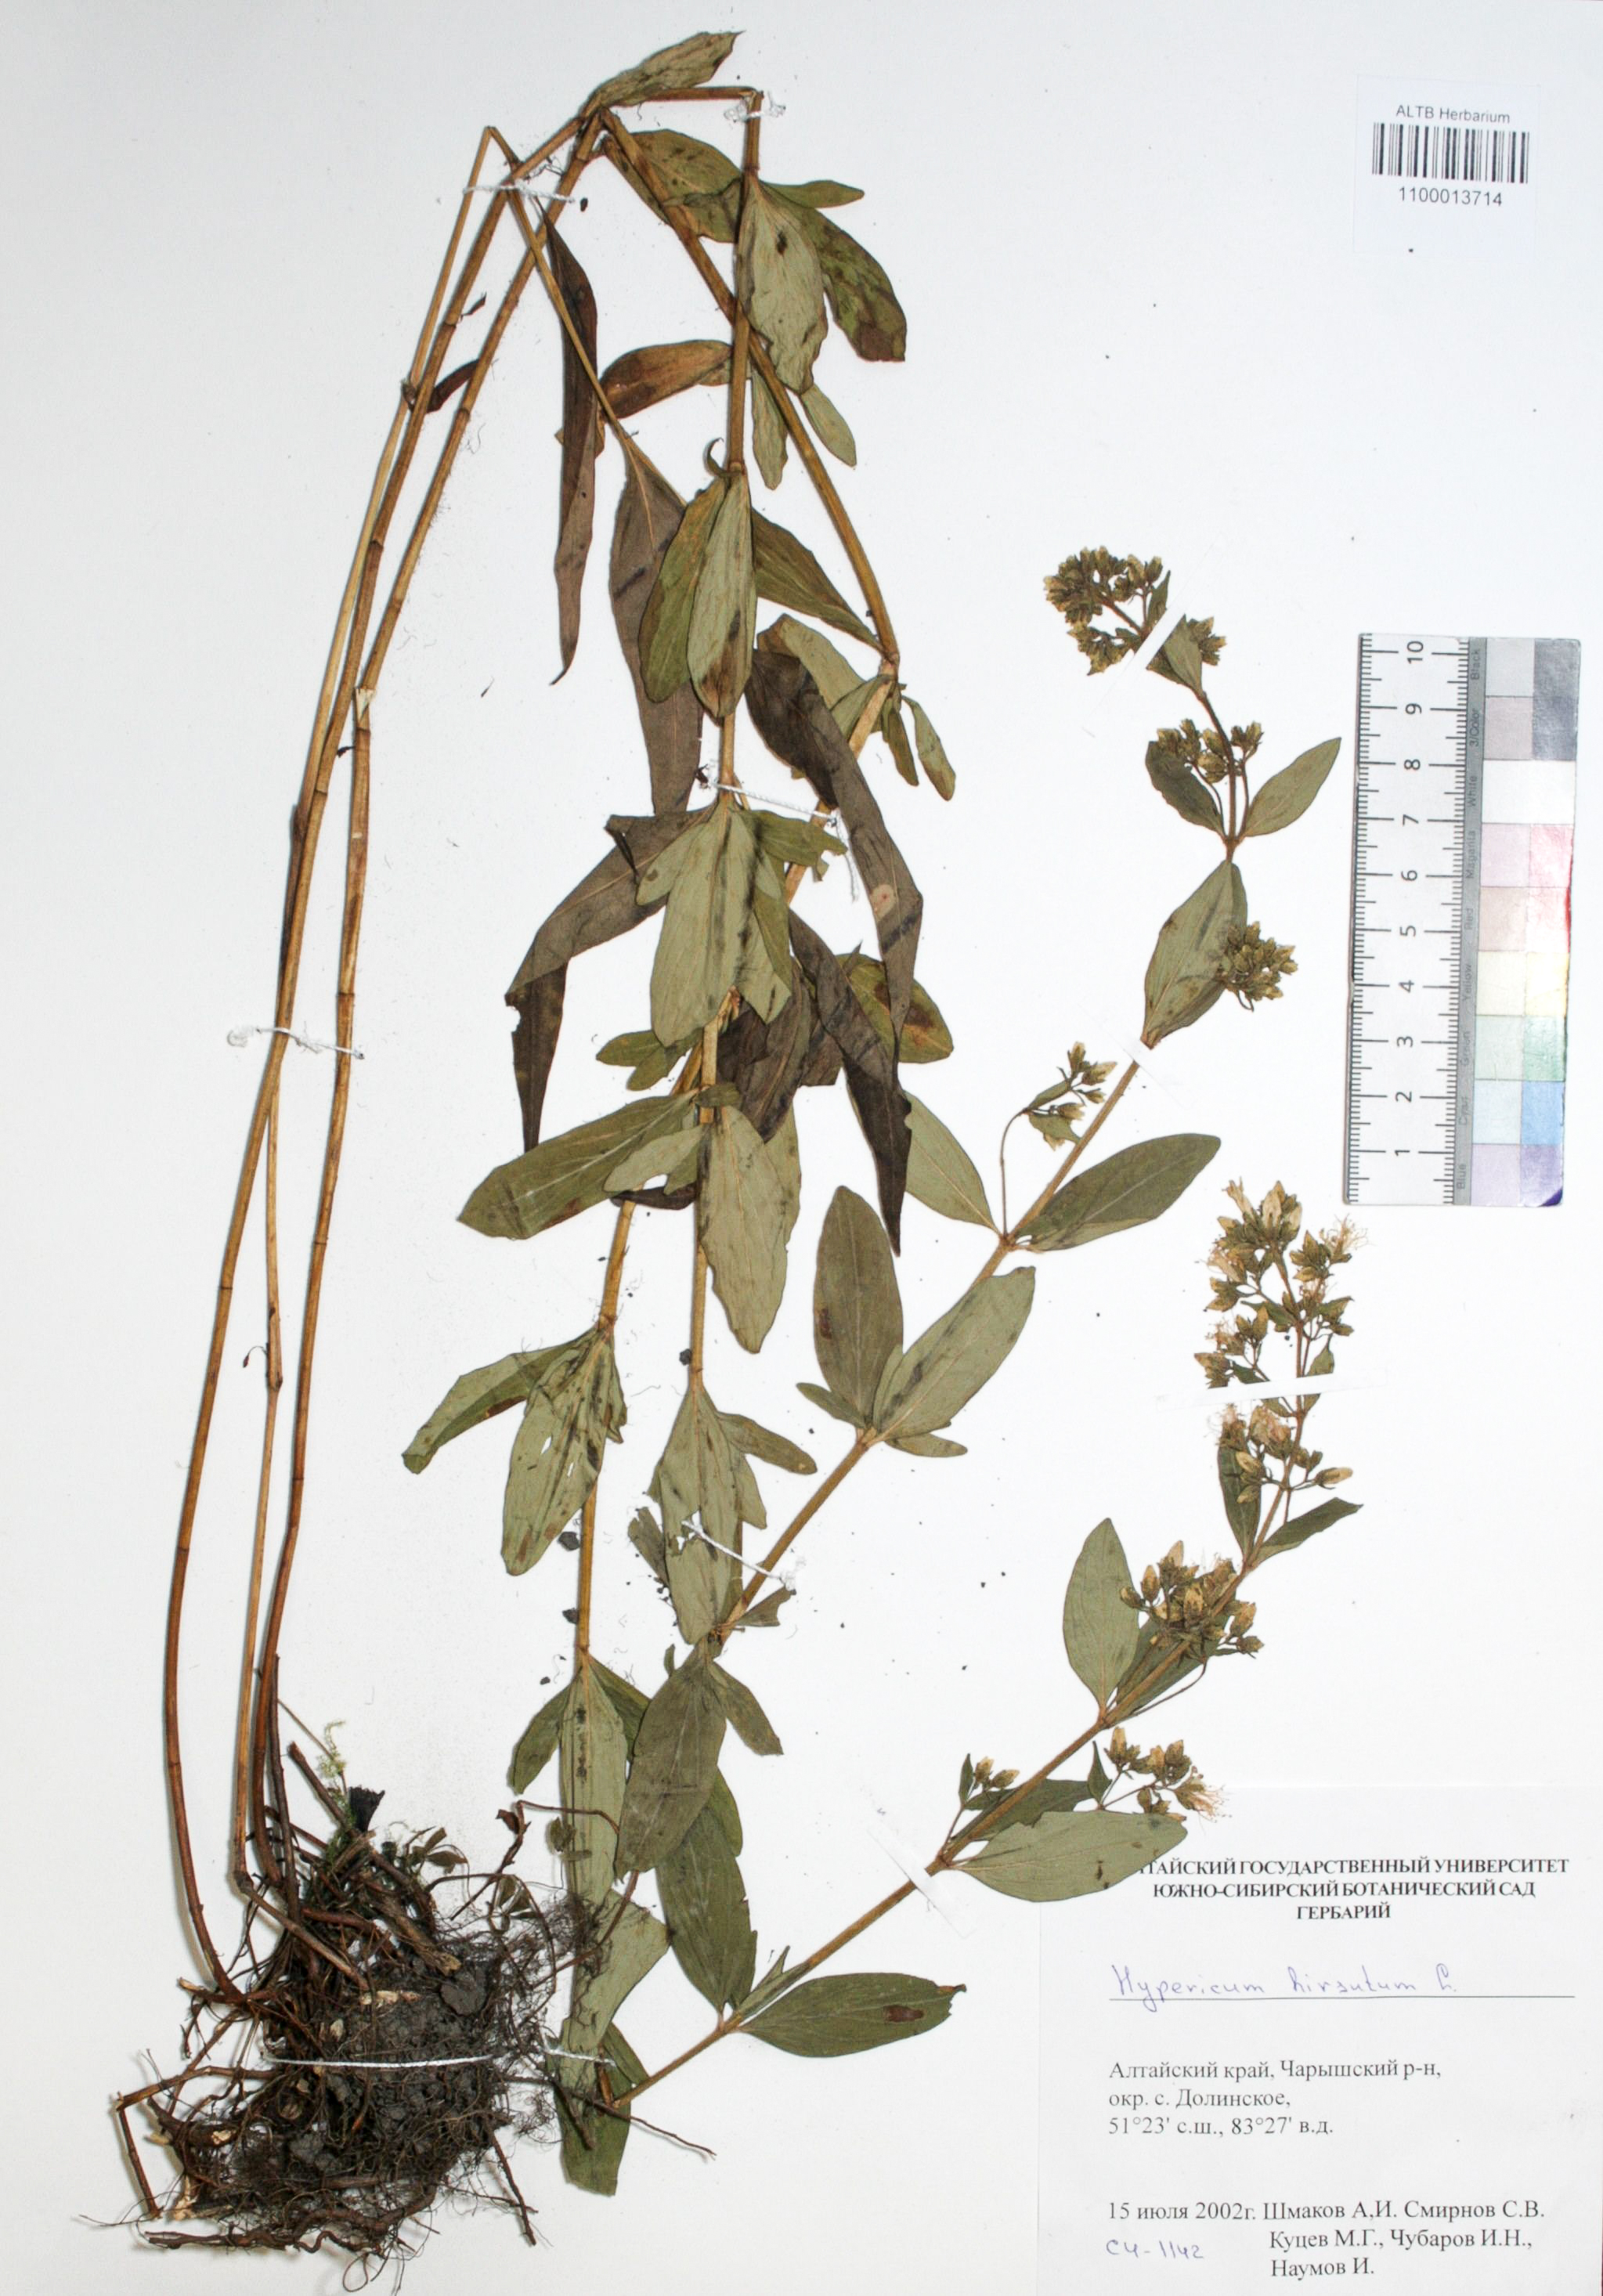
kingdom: Plantae
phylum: Tracheophyta
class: Magnoliopsida
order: Malpighiales
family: Hypericaceae
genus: Hypericum
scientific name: Hypericum hirsutum
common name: Hairy st. john's-wort
